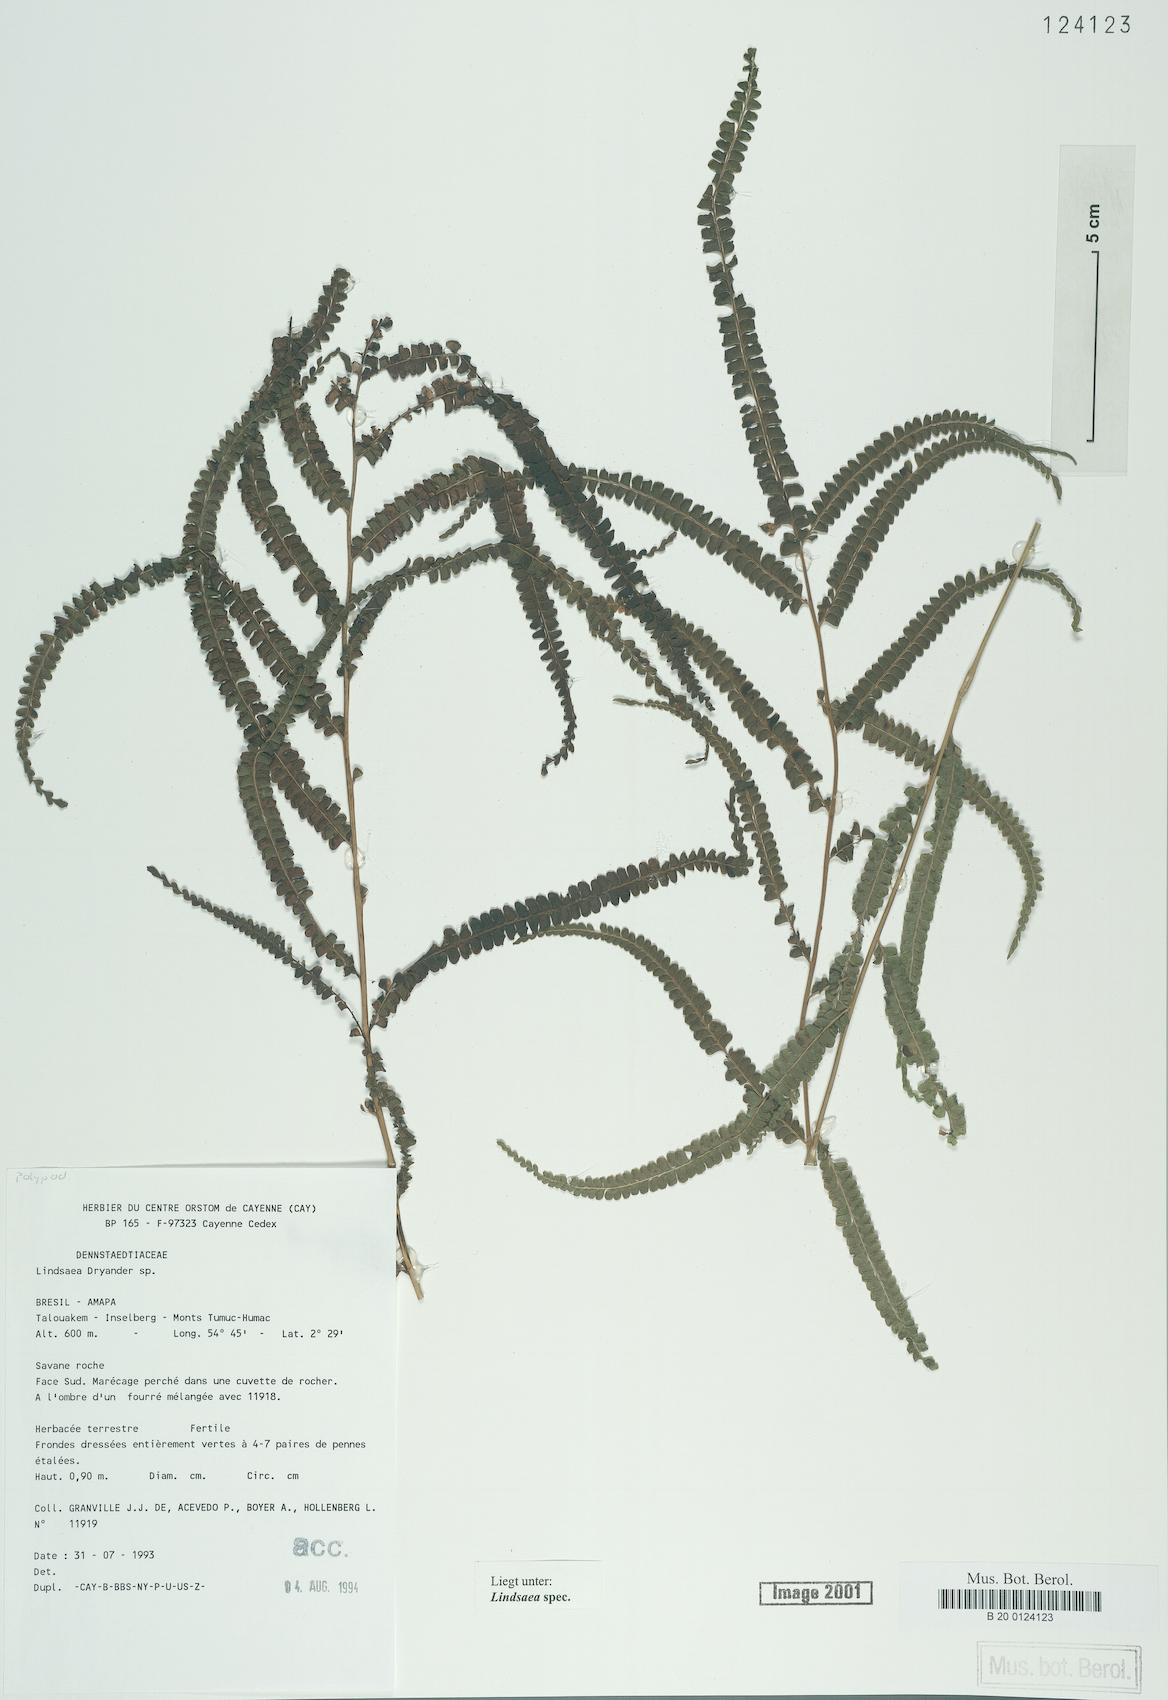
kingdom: Plantae
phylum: Tracheophyta
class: Polypodiopsida
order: Polypodiales
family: Lindsaeaceae
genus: Lindsaea
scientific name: Lindsaea
